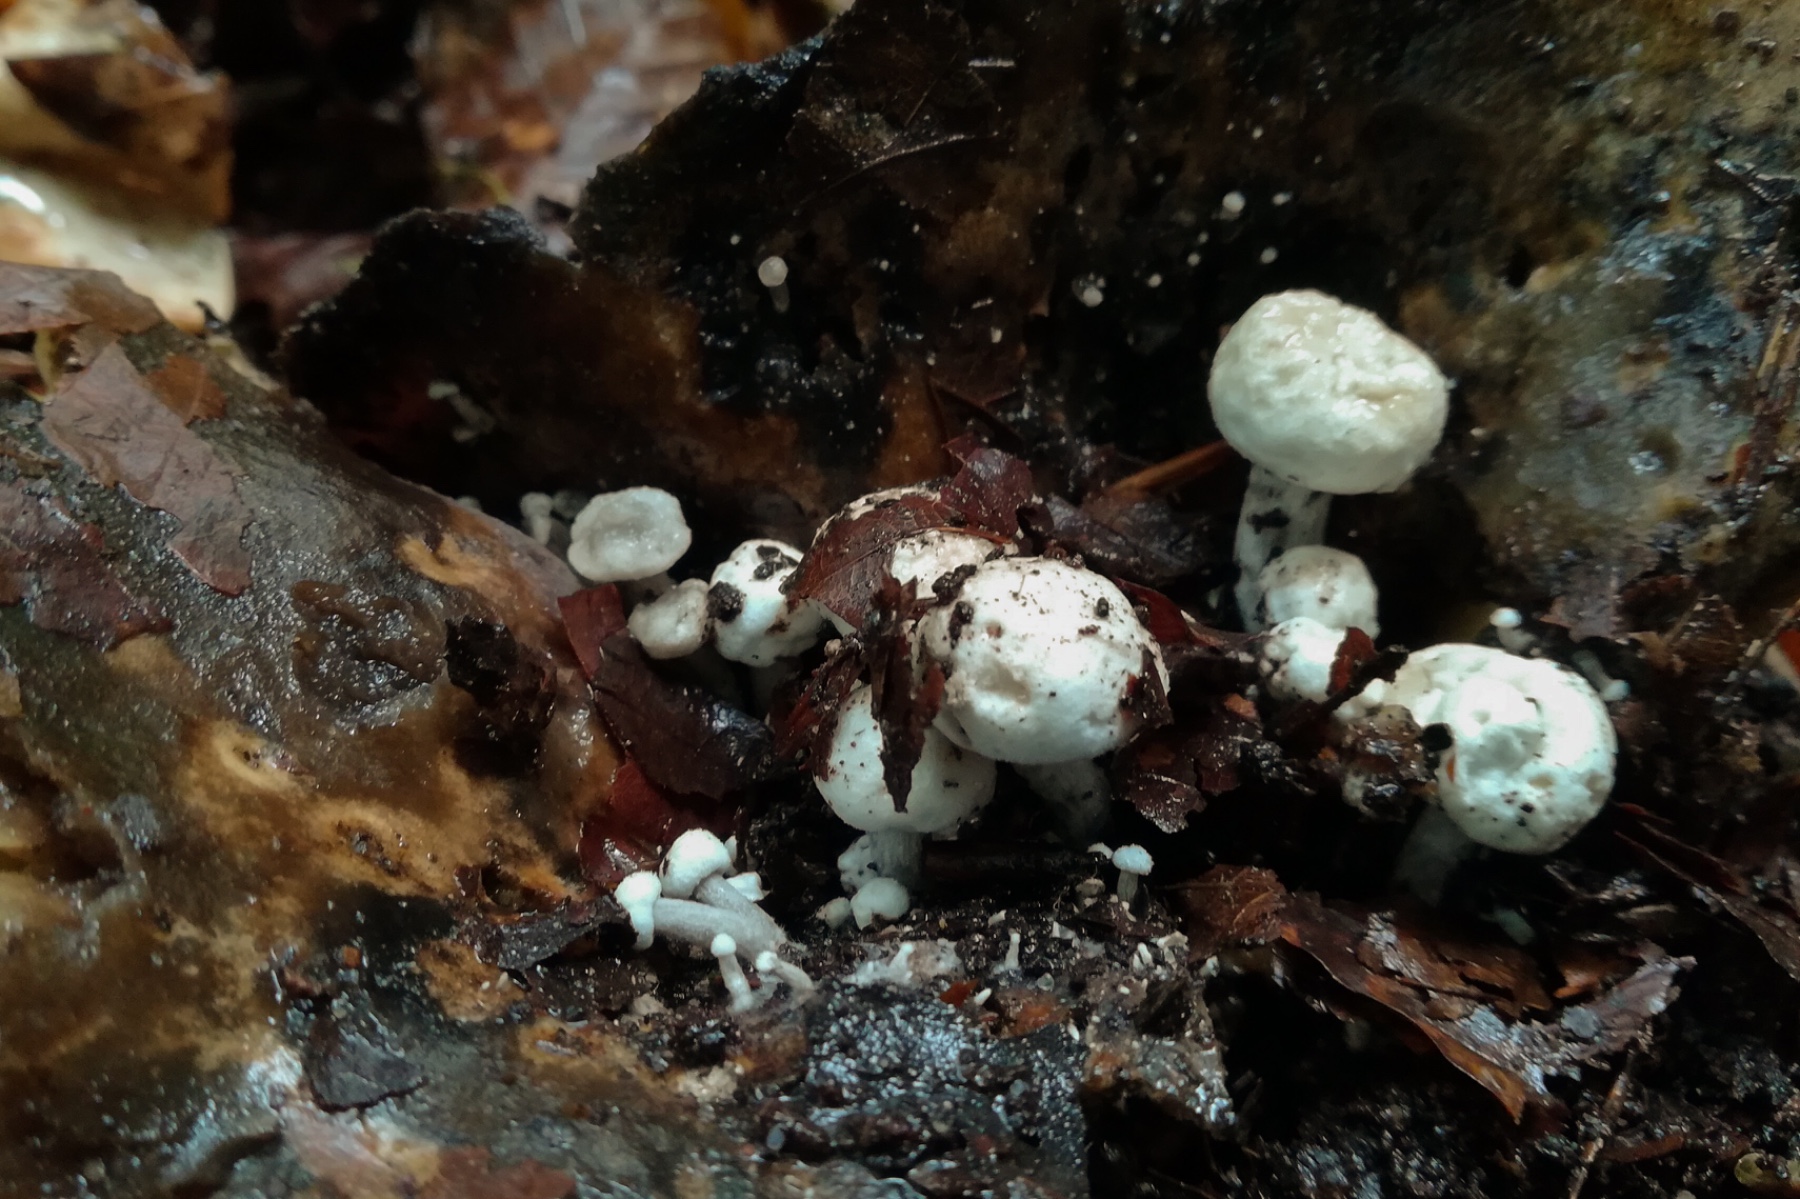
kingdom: Fungi
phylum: Basidiomycota
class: Agaricomycetes
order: Agaricales
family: Lyophyllaceae
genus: Asterophora
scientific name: Asterophora parasitica
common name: grå snyltehat
